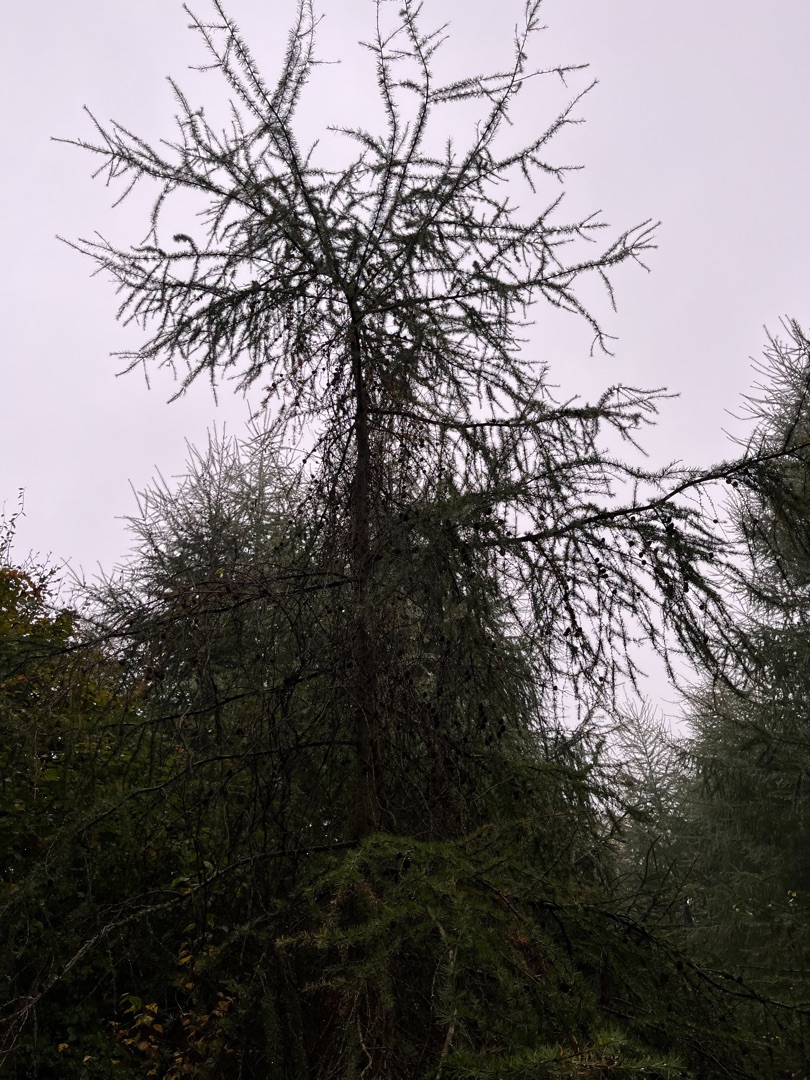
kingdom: Plantae
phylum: Tracheophyta
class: Pinopsida
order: Pinales
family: Pinaceae
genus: Larix
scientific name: Larix
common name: Lærkeslægten
